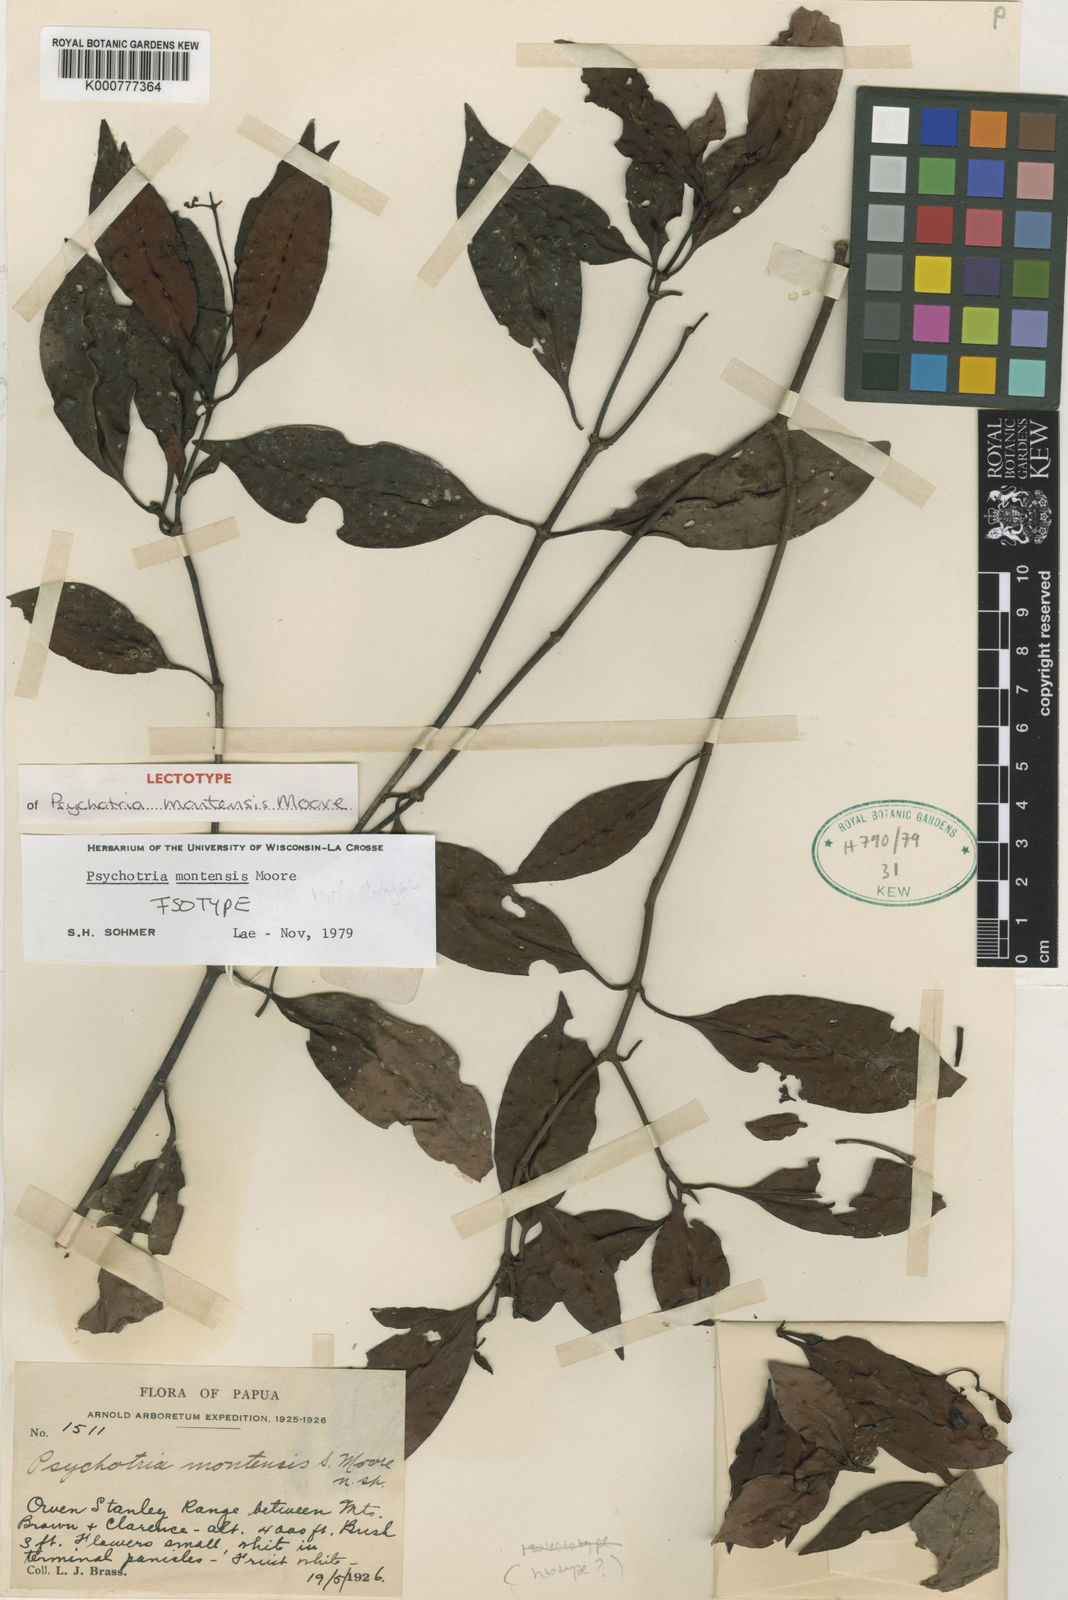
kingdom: Plantae
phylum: Tracheophyta
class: Magnoliopsida
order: Gentianales
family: Rubiaceae
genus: Psychotria
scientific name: Psychotria montensis
